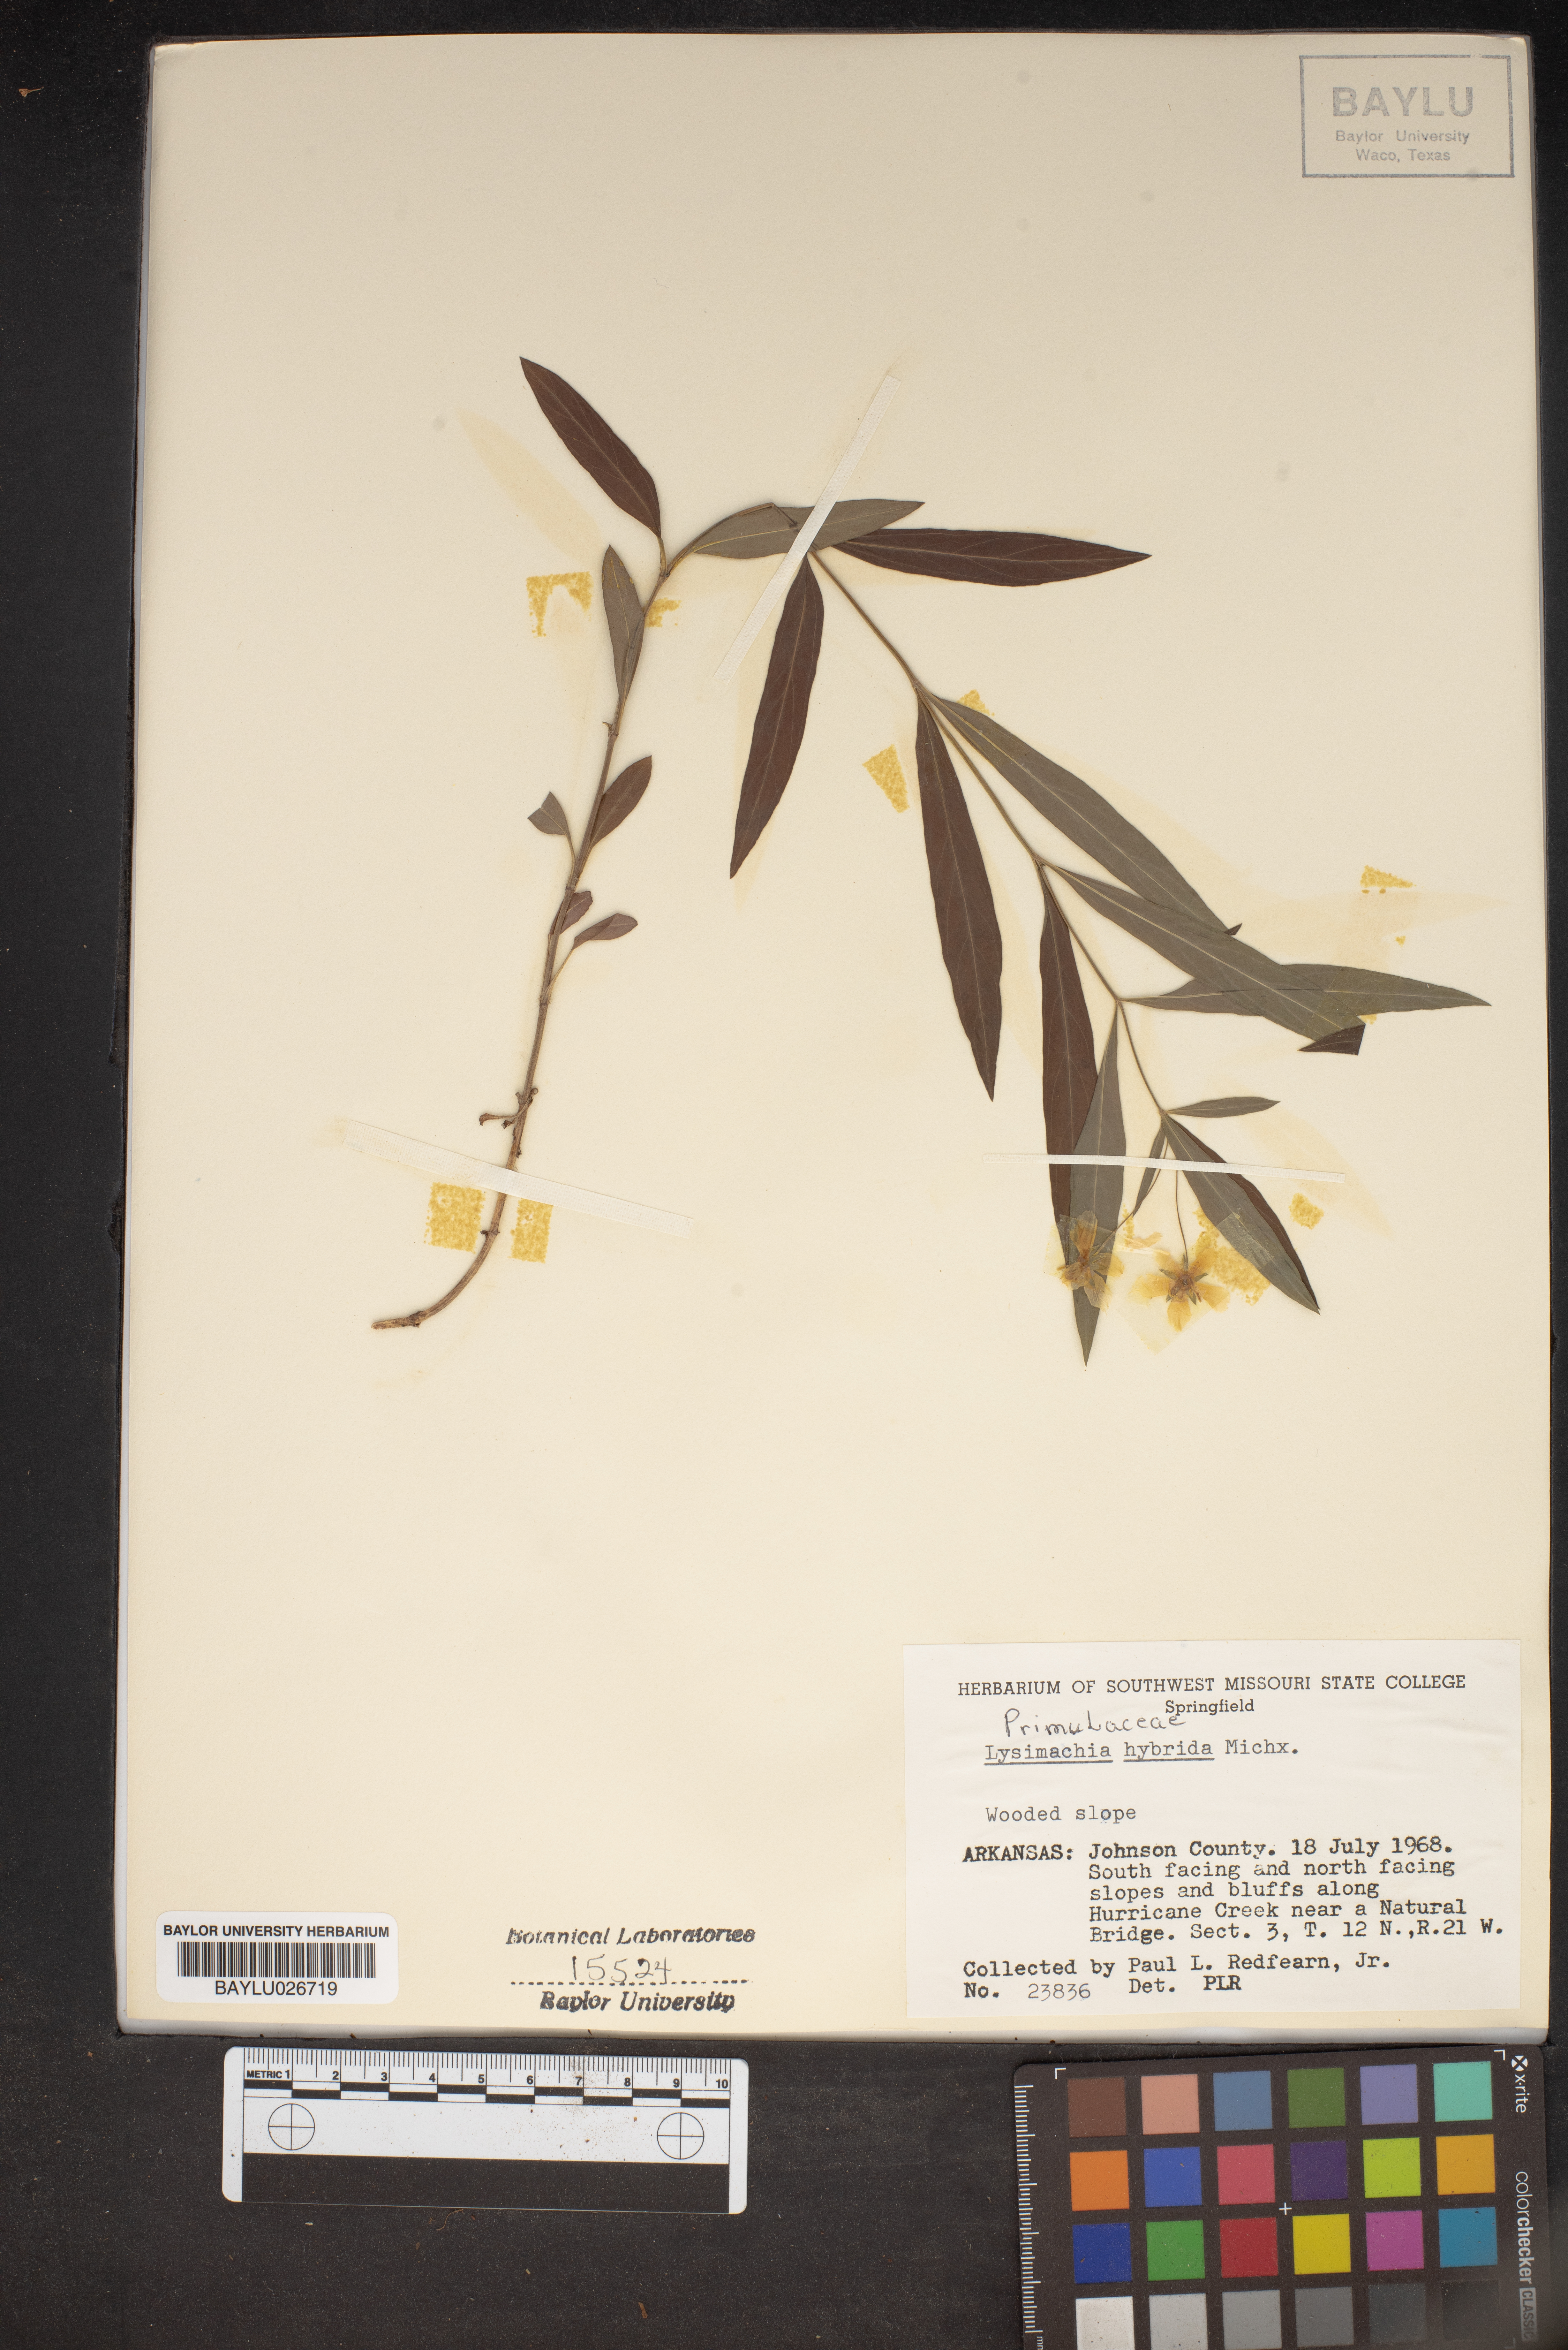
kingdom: Plantae
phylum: Tracheophyta
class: Magnoliopsida
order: Ericales
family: Primulaceae
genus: Lysimachia
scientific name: Lysimachia hybrida
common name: Lowland loosestrife
